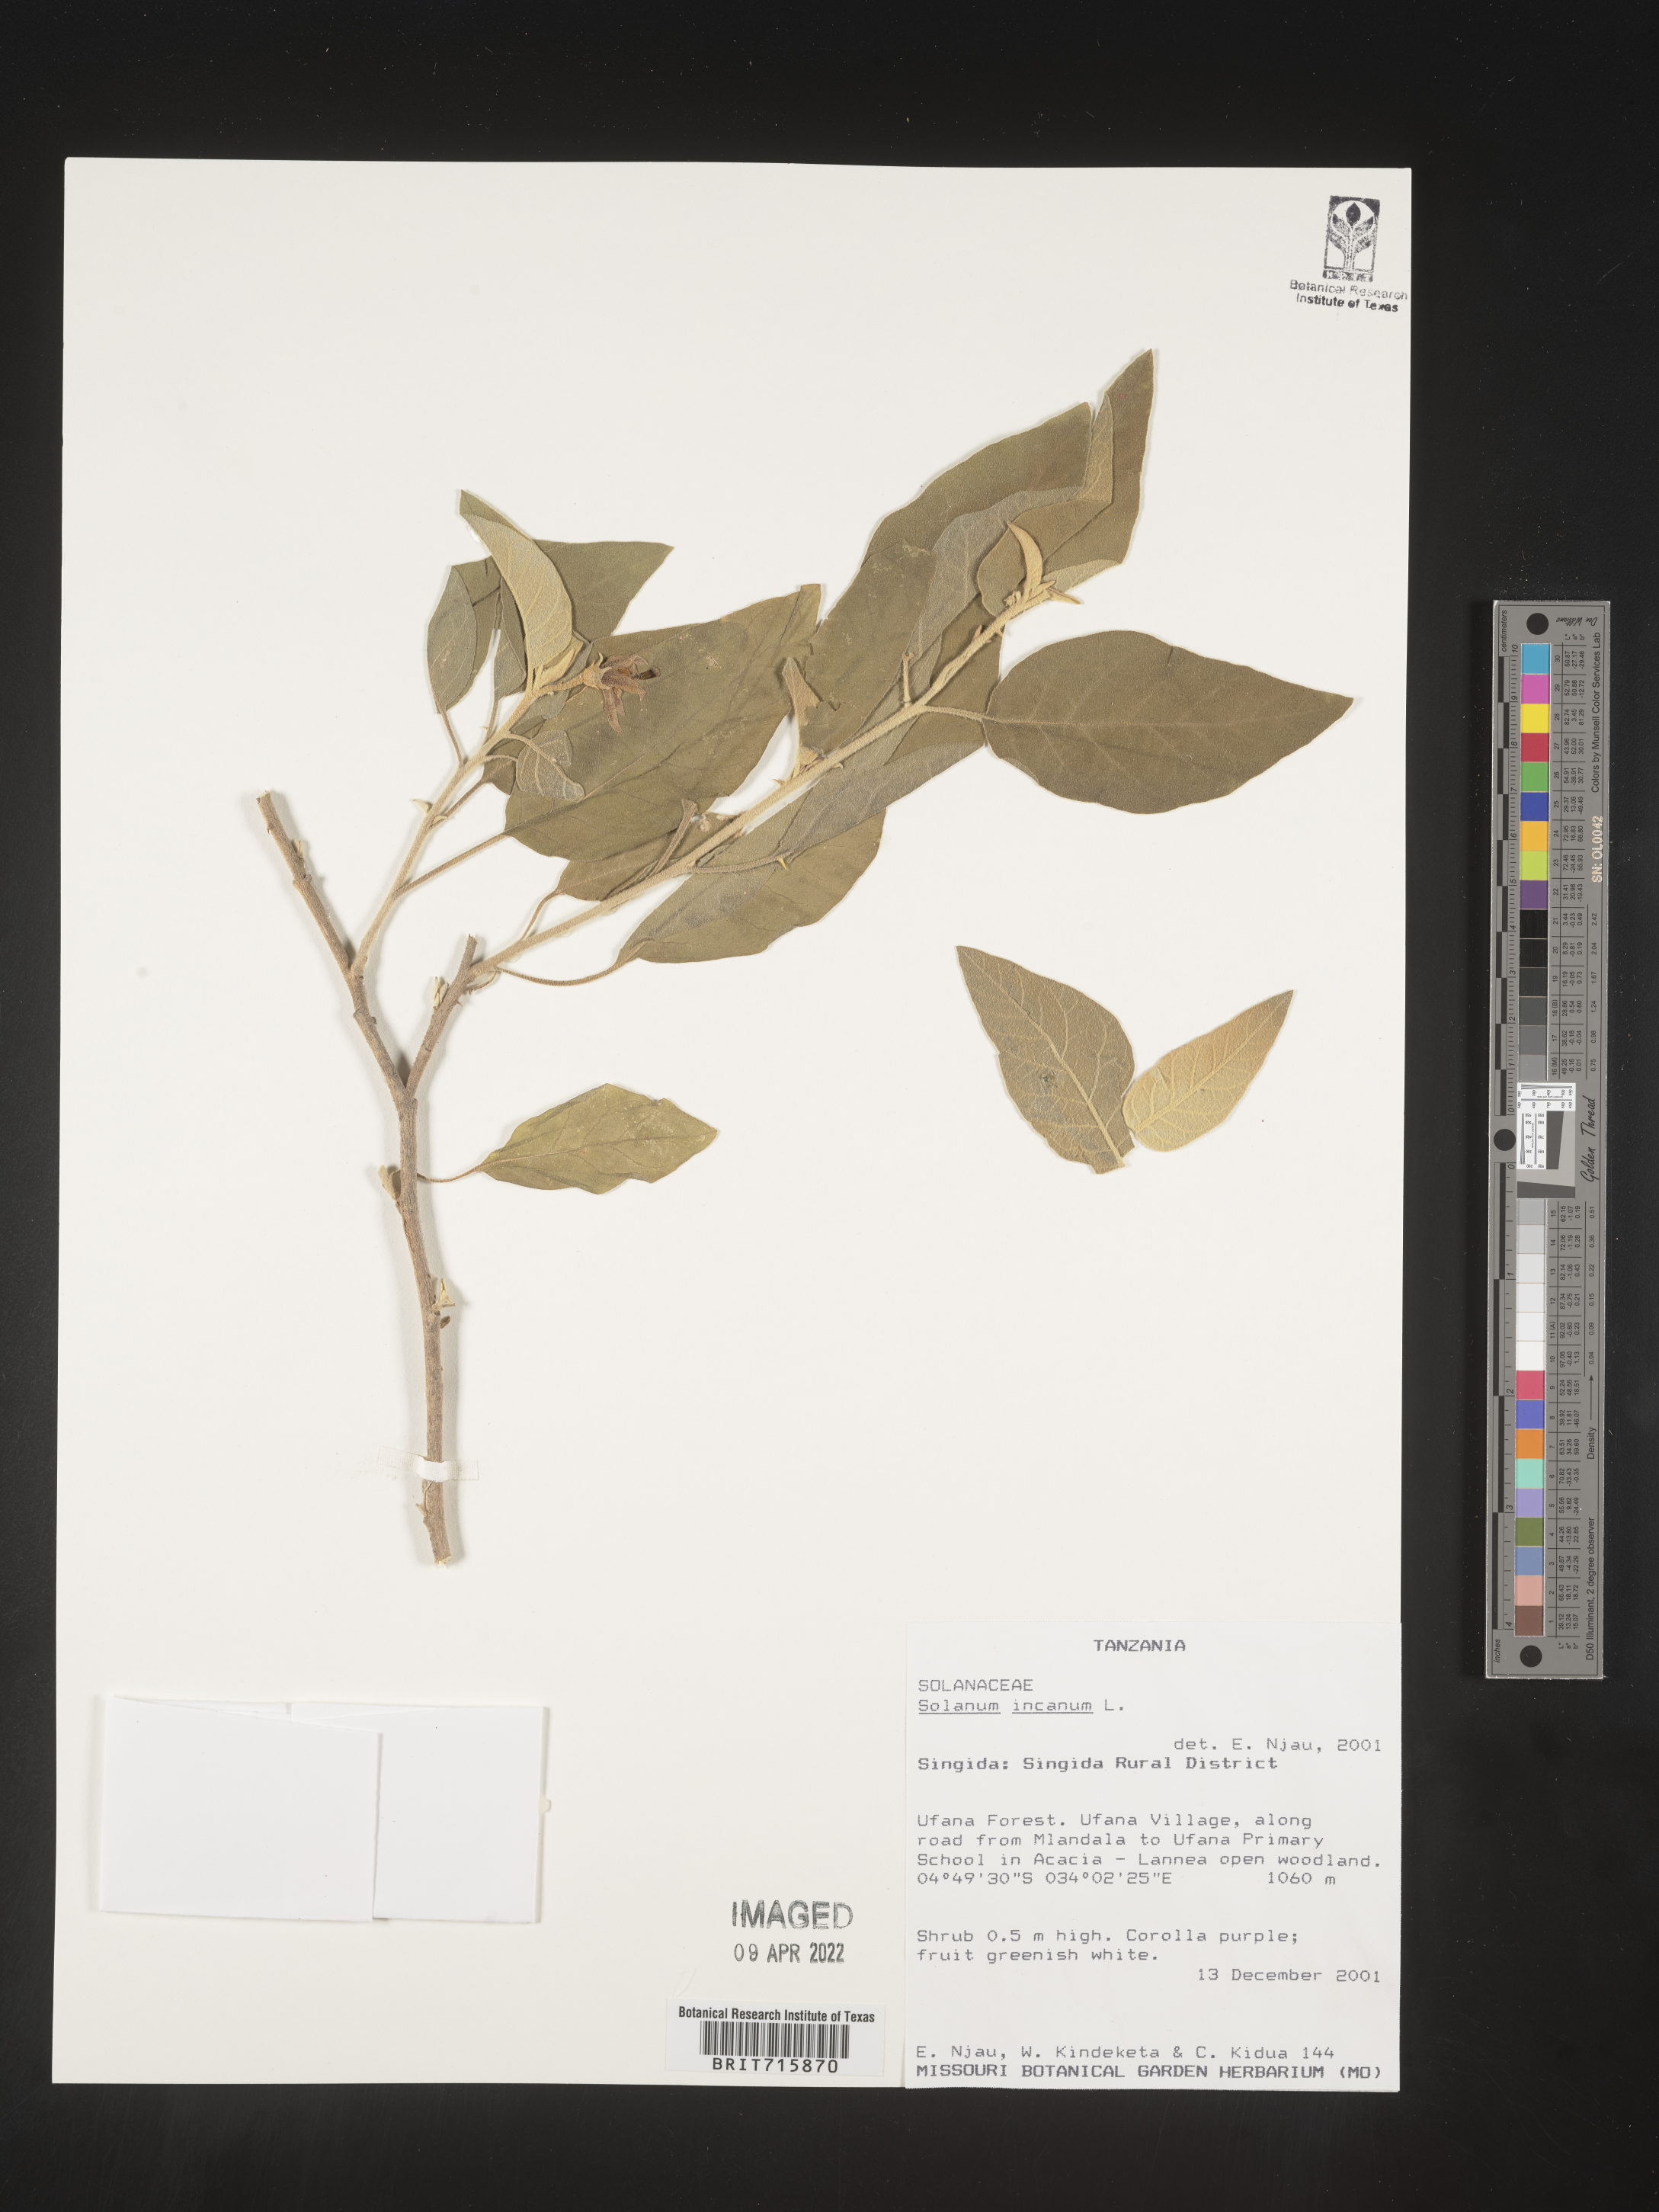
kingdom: Plantae
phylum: Tracheophyta
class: Magnoliopsida
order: Solanales
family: Solanaceae
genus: Solanum
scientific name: Solanum
